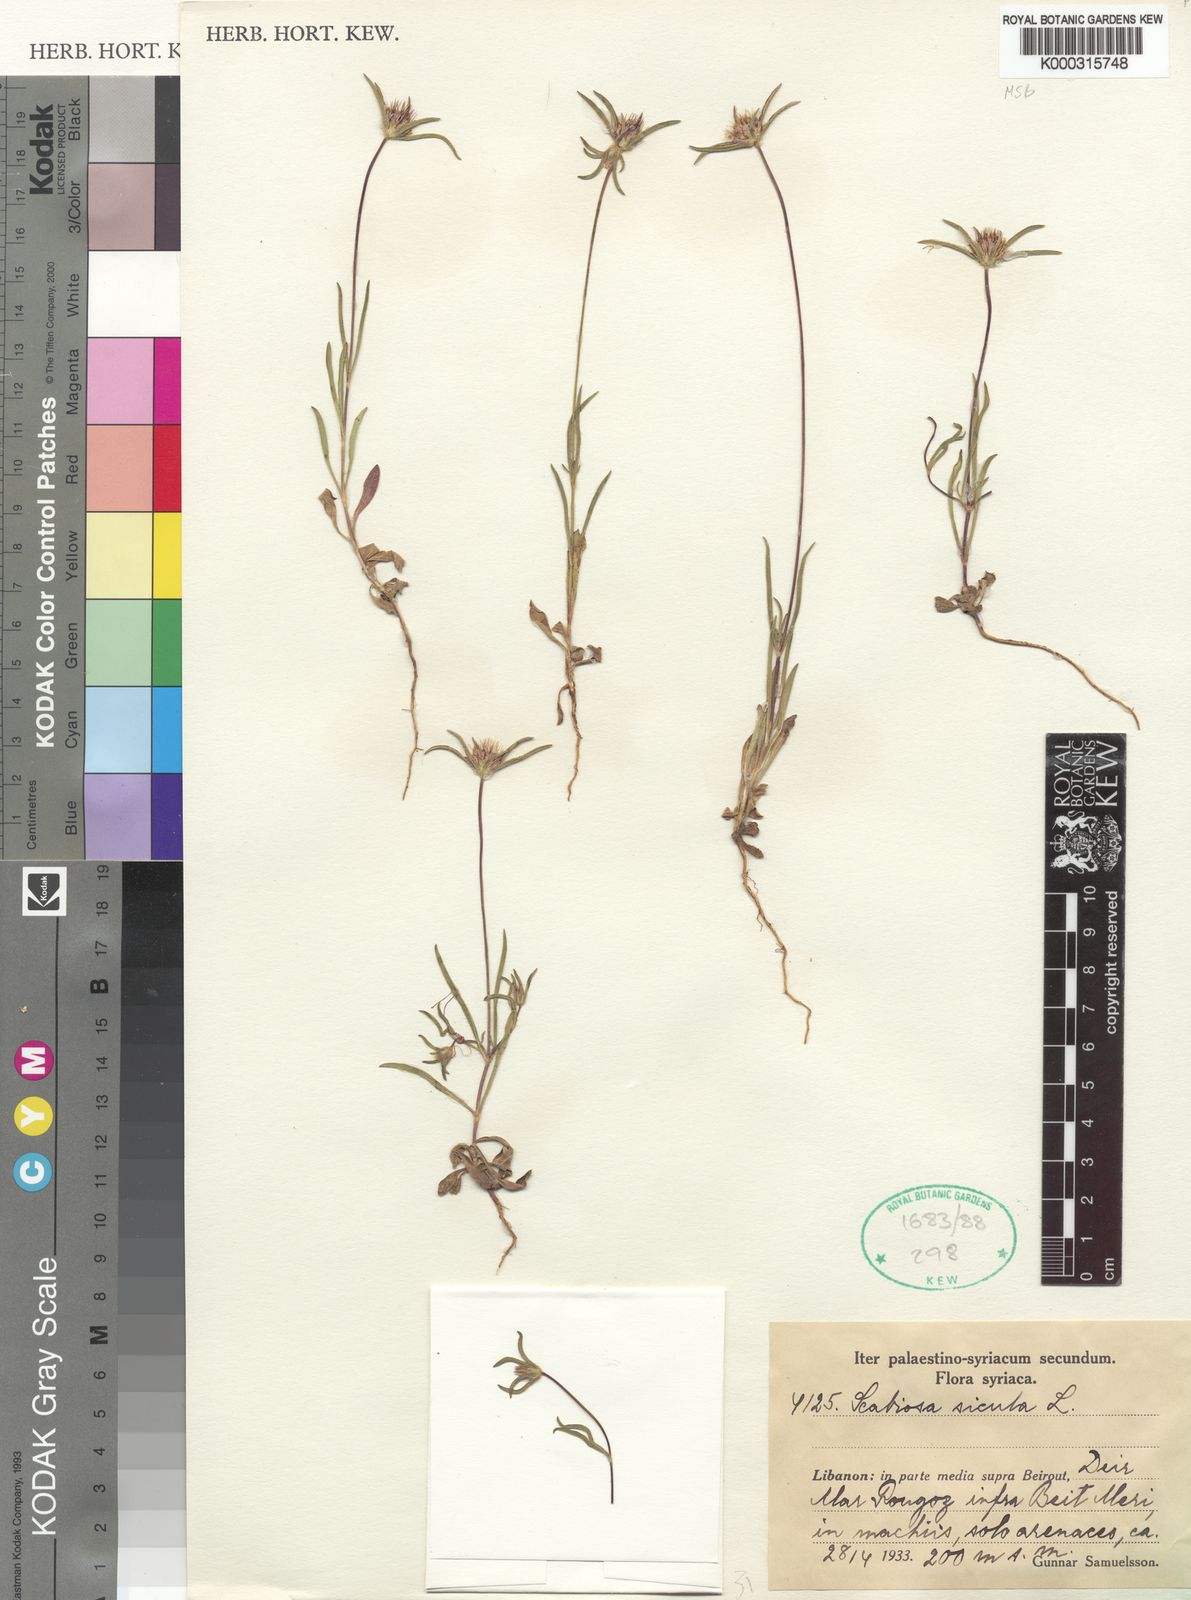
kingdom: Plantae
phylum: Tracheophyta
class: Magnoliopsida
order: Dipsacales
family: Caprifoliaceae
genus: Lomelosia
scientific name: Lomelosia divaricata
